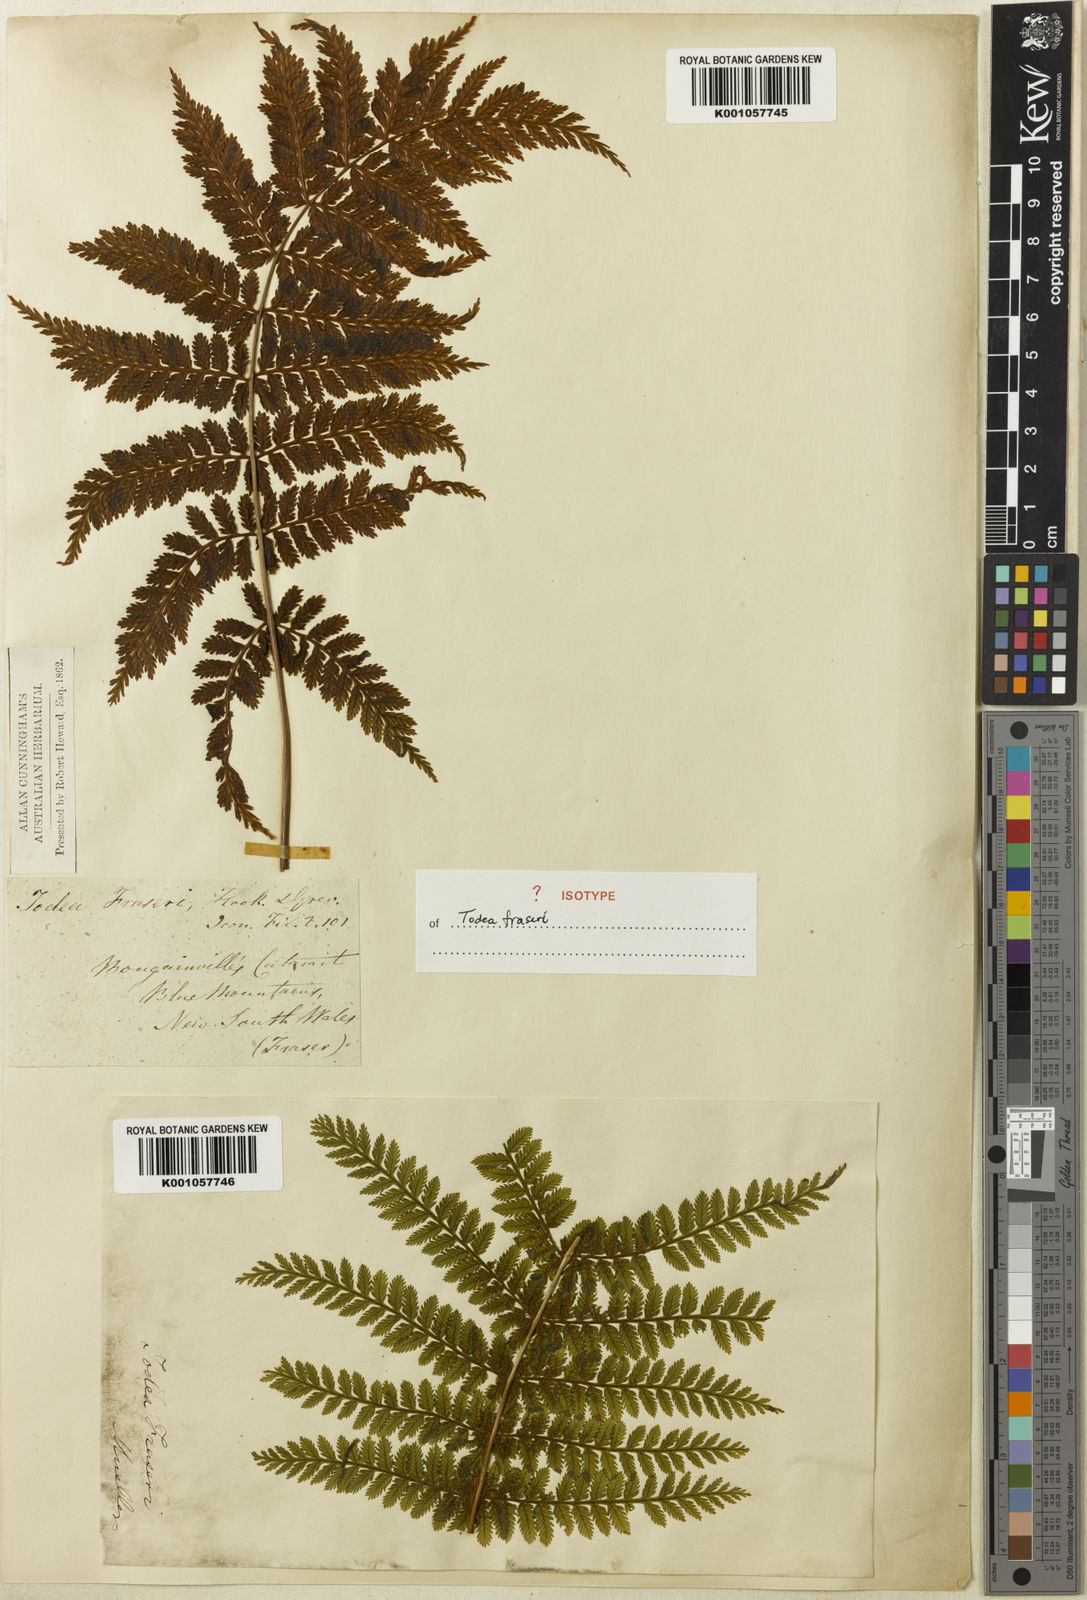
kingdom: Plantae
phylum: Tracheophyta
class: Polypodiopsida
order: Osmundales
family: Osmundaceae
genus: Leptopteris
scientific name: Leptopteris fraseri
